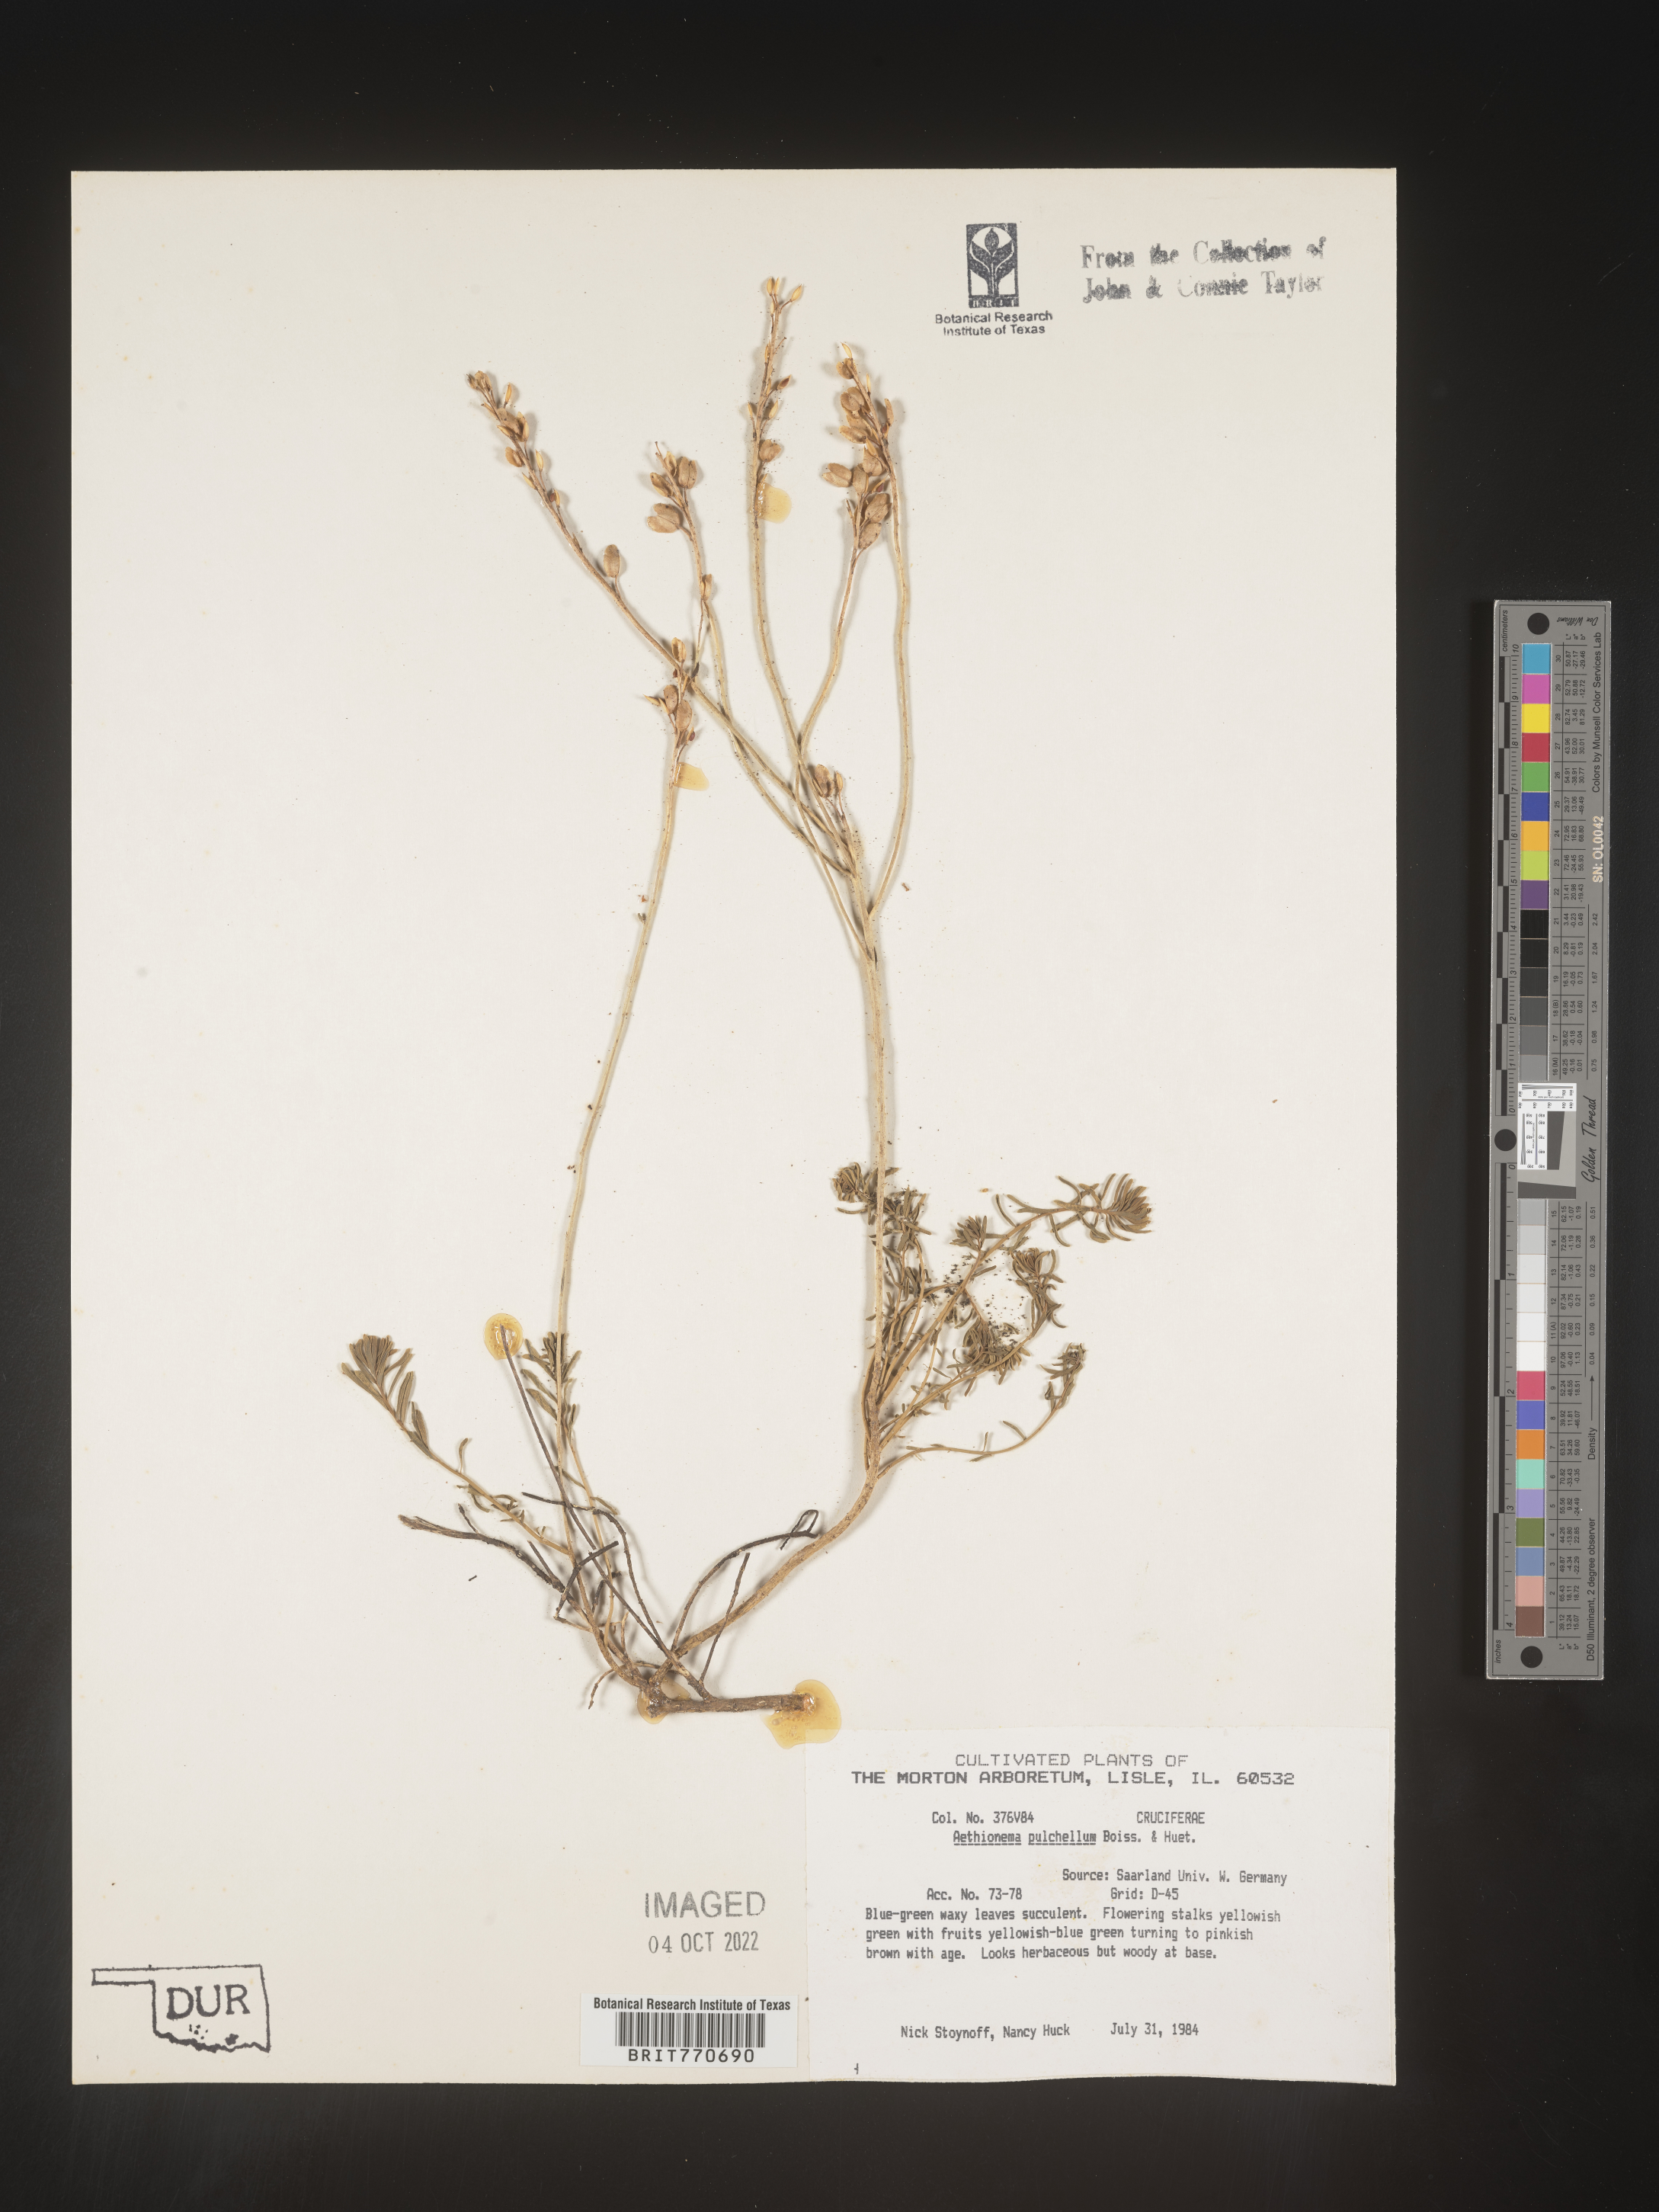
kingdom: Plantae
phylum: Tracheophyta
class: Magnoliopsida
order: Brassicales
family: Brassicaceae
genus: Aethionema
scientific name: Aethionema
